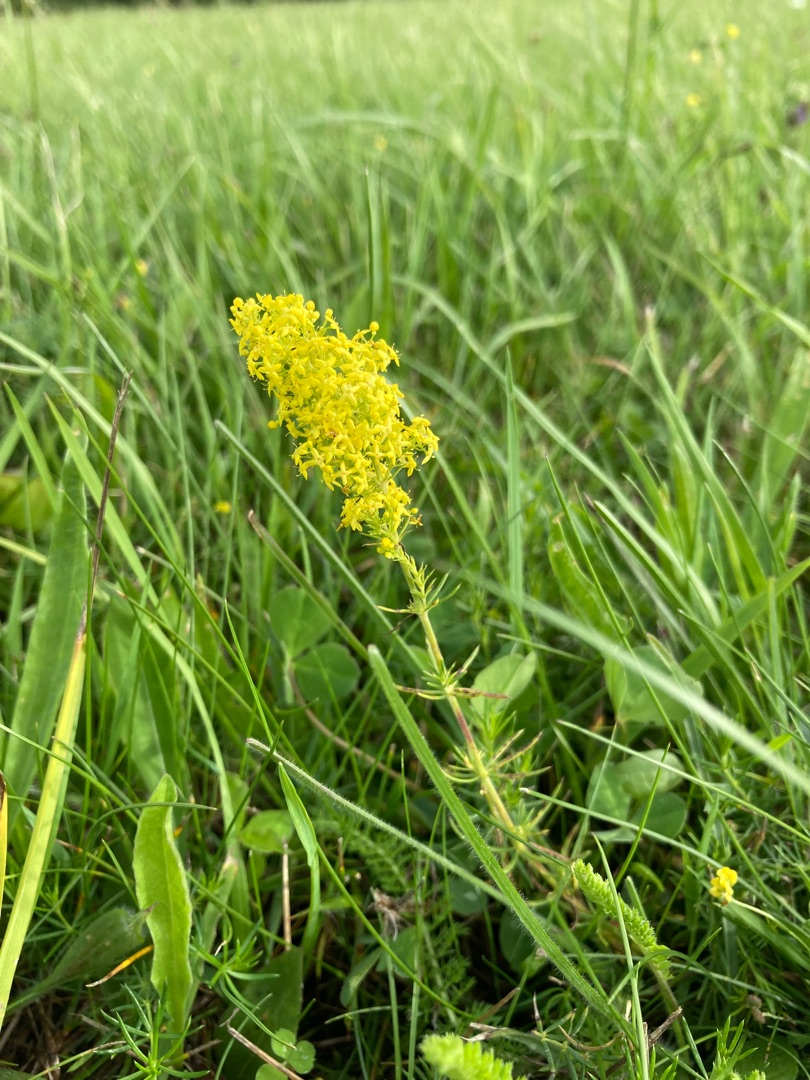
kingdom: Plantae
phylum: Tracheophyta
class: Magnoliopsida
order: Gentianales
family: Rubiaceae
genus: Galium
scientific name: Galium verum
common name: Gul snerre
